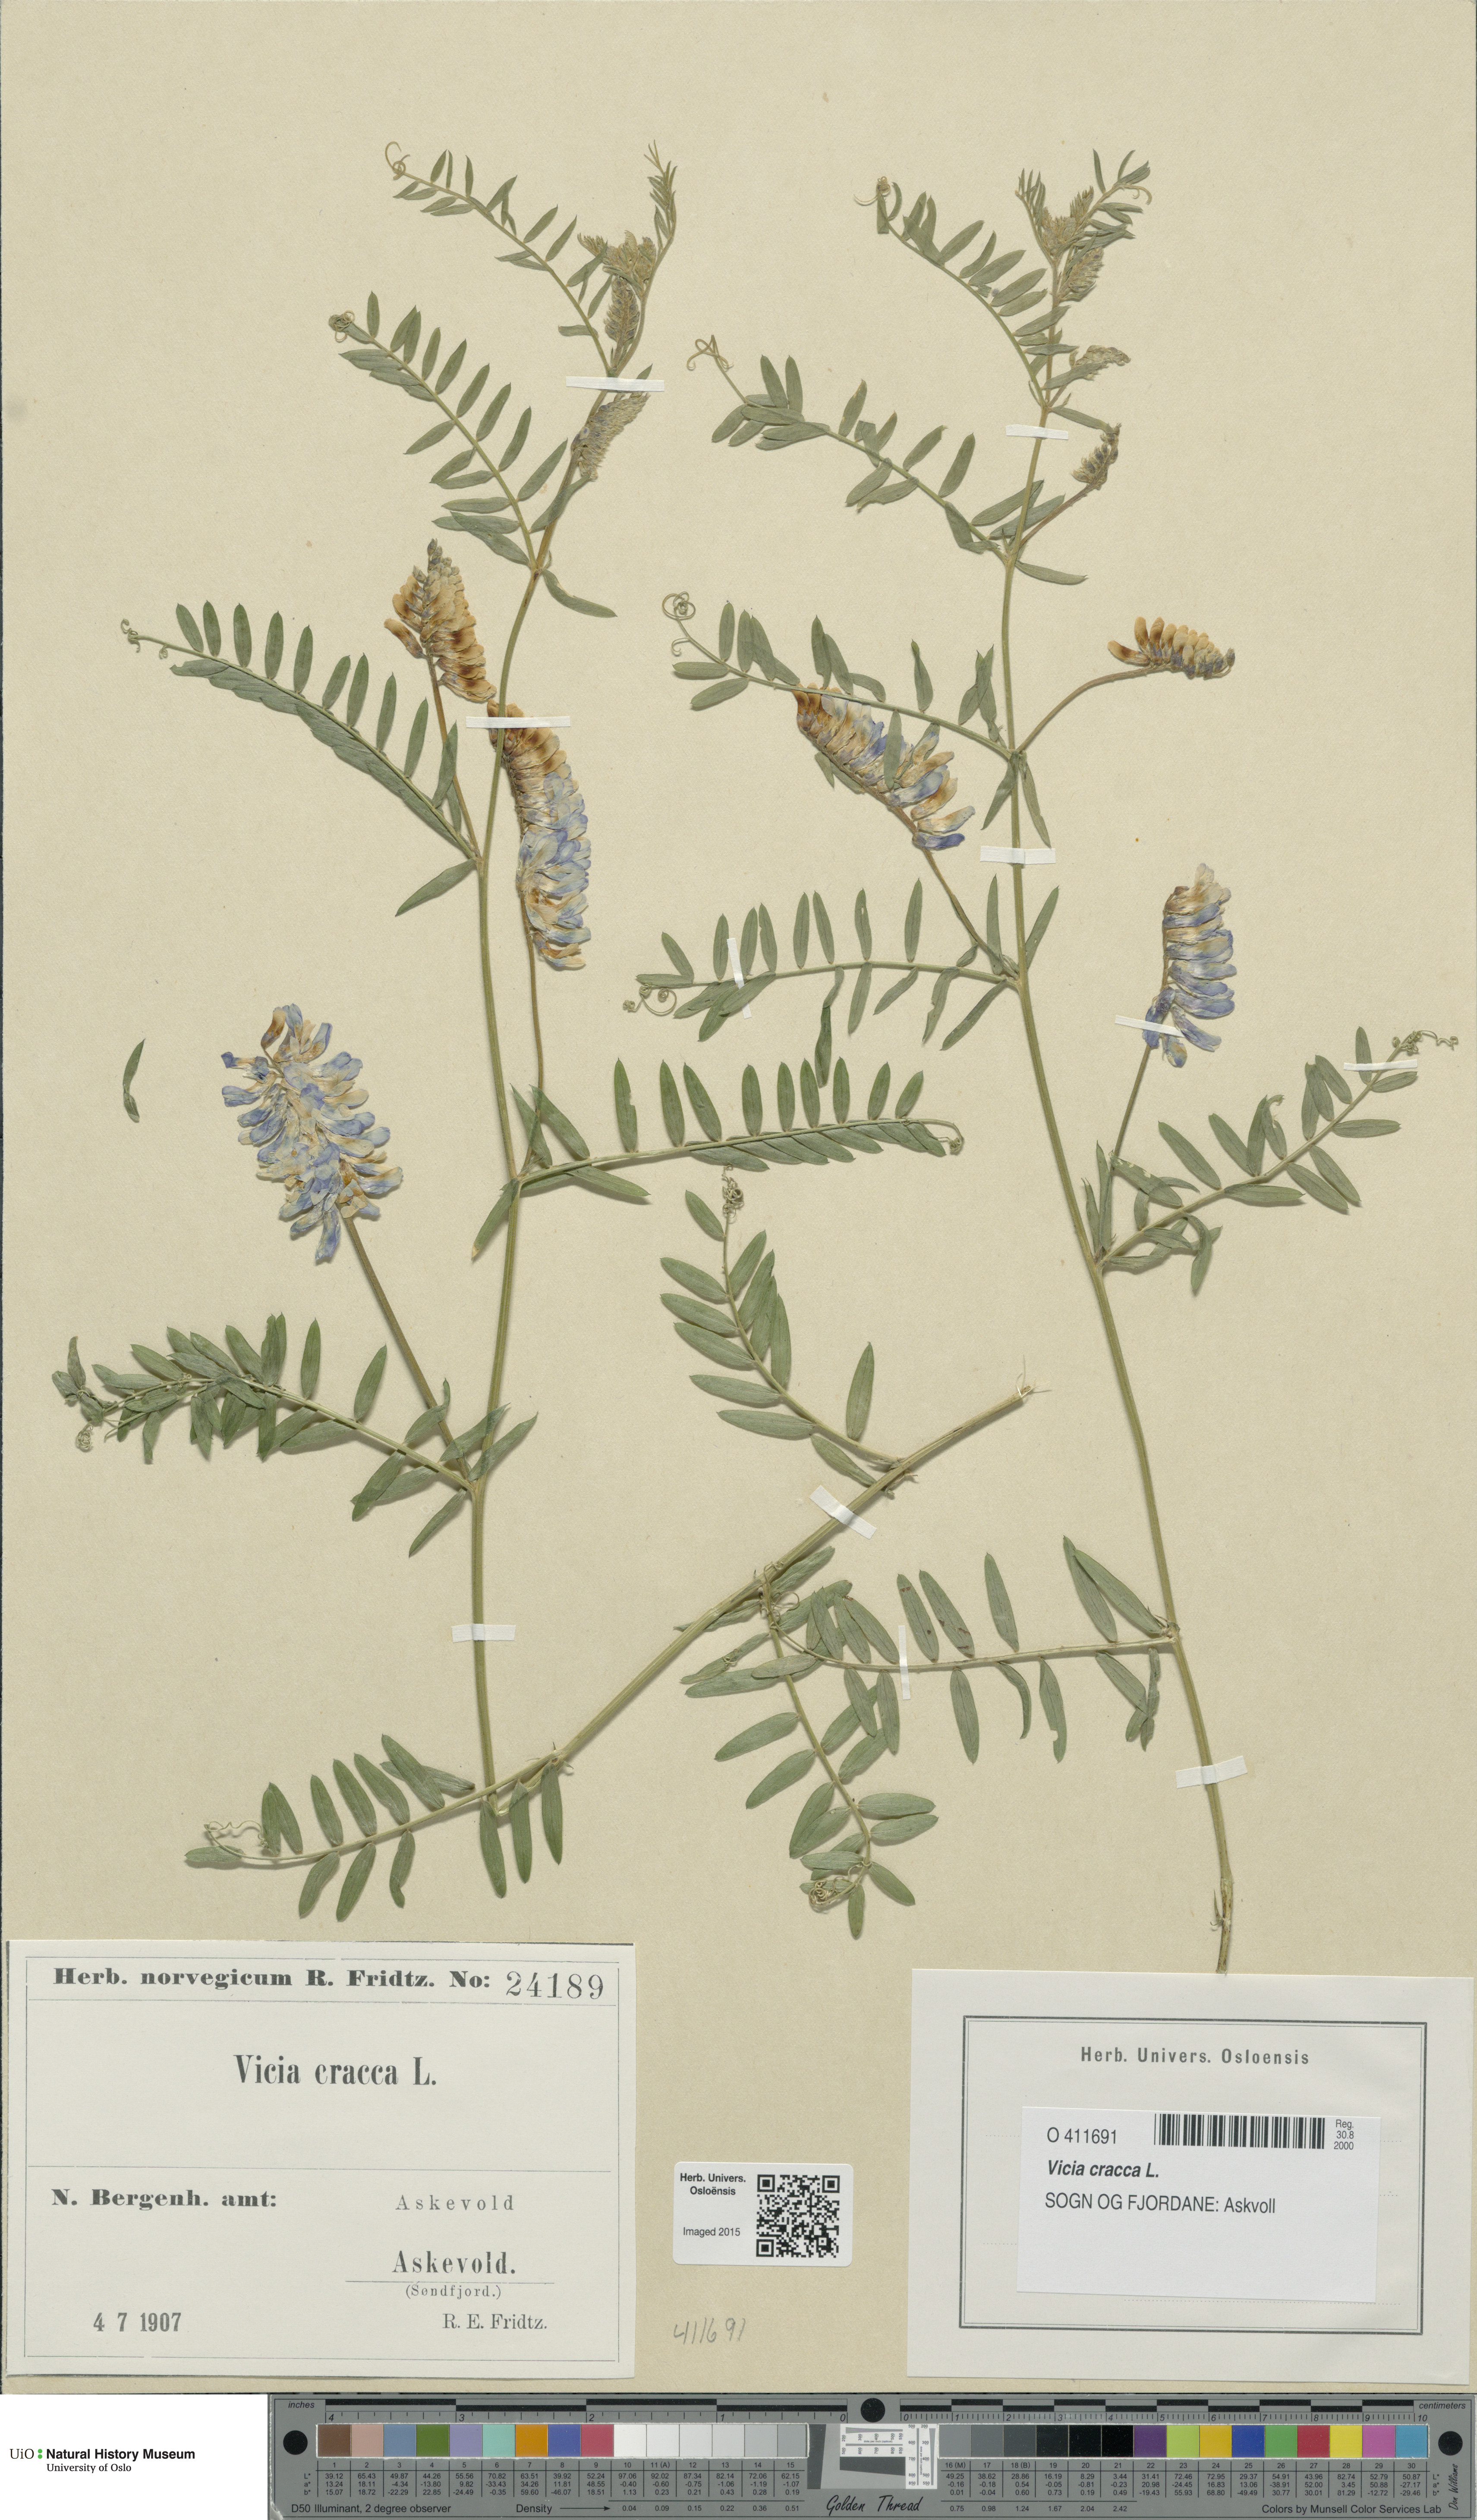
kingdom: Plantae
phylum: Tracheophyta
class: Magnoliopsida
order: Fabales
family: Fabaceae
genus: Vicia
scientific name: Vicia cracca
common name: Bird vetch
